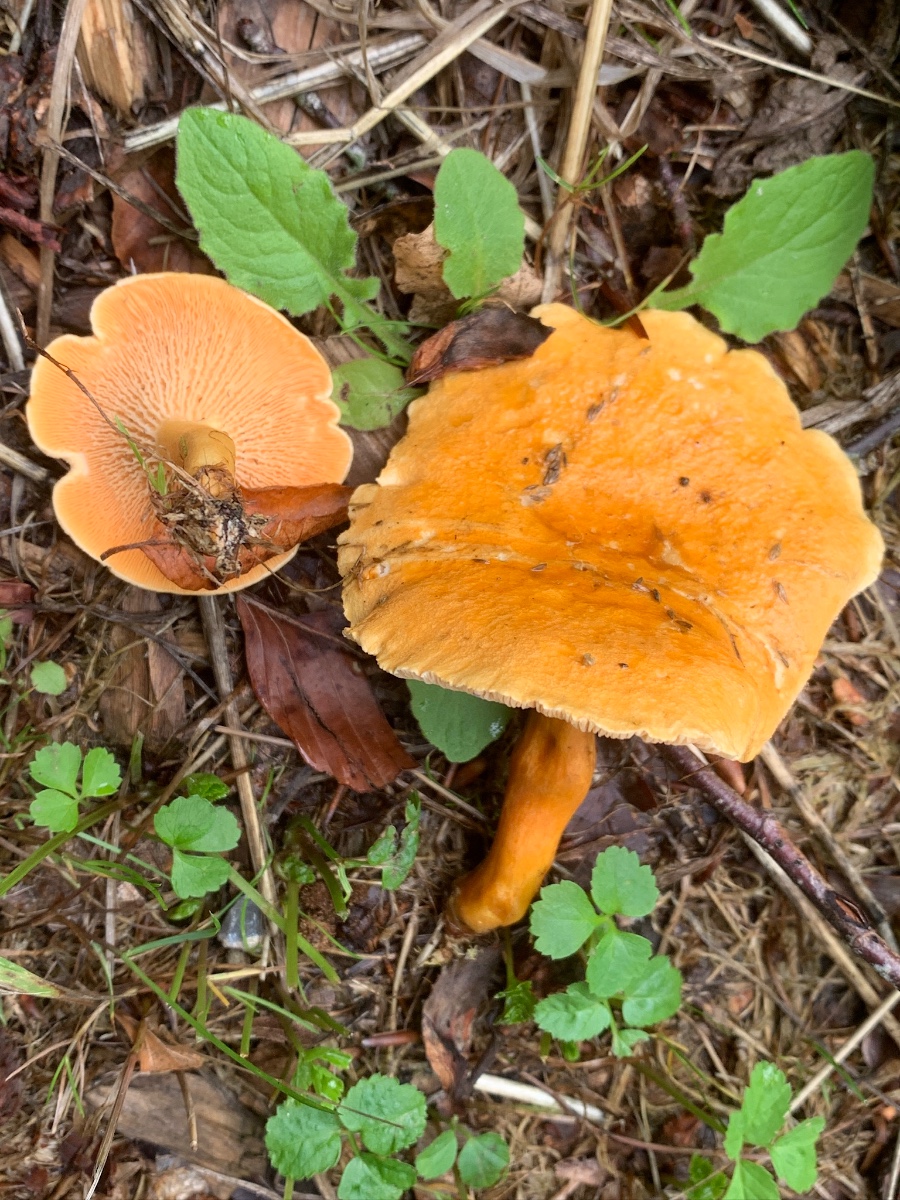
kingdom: Fungi
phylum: Basidiomycota
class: Agaricomycetes
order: Boletales
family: Hygrophoropsidaceae
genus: Hygrophoropsis
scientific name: Hygrophoropsis aurantiaca
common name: almindelig orangekantarel
